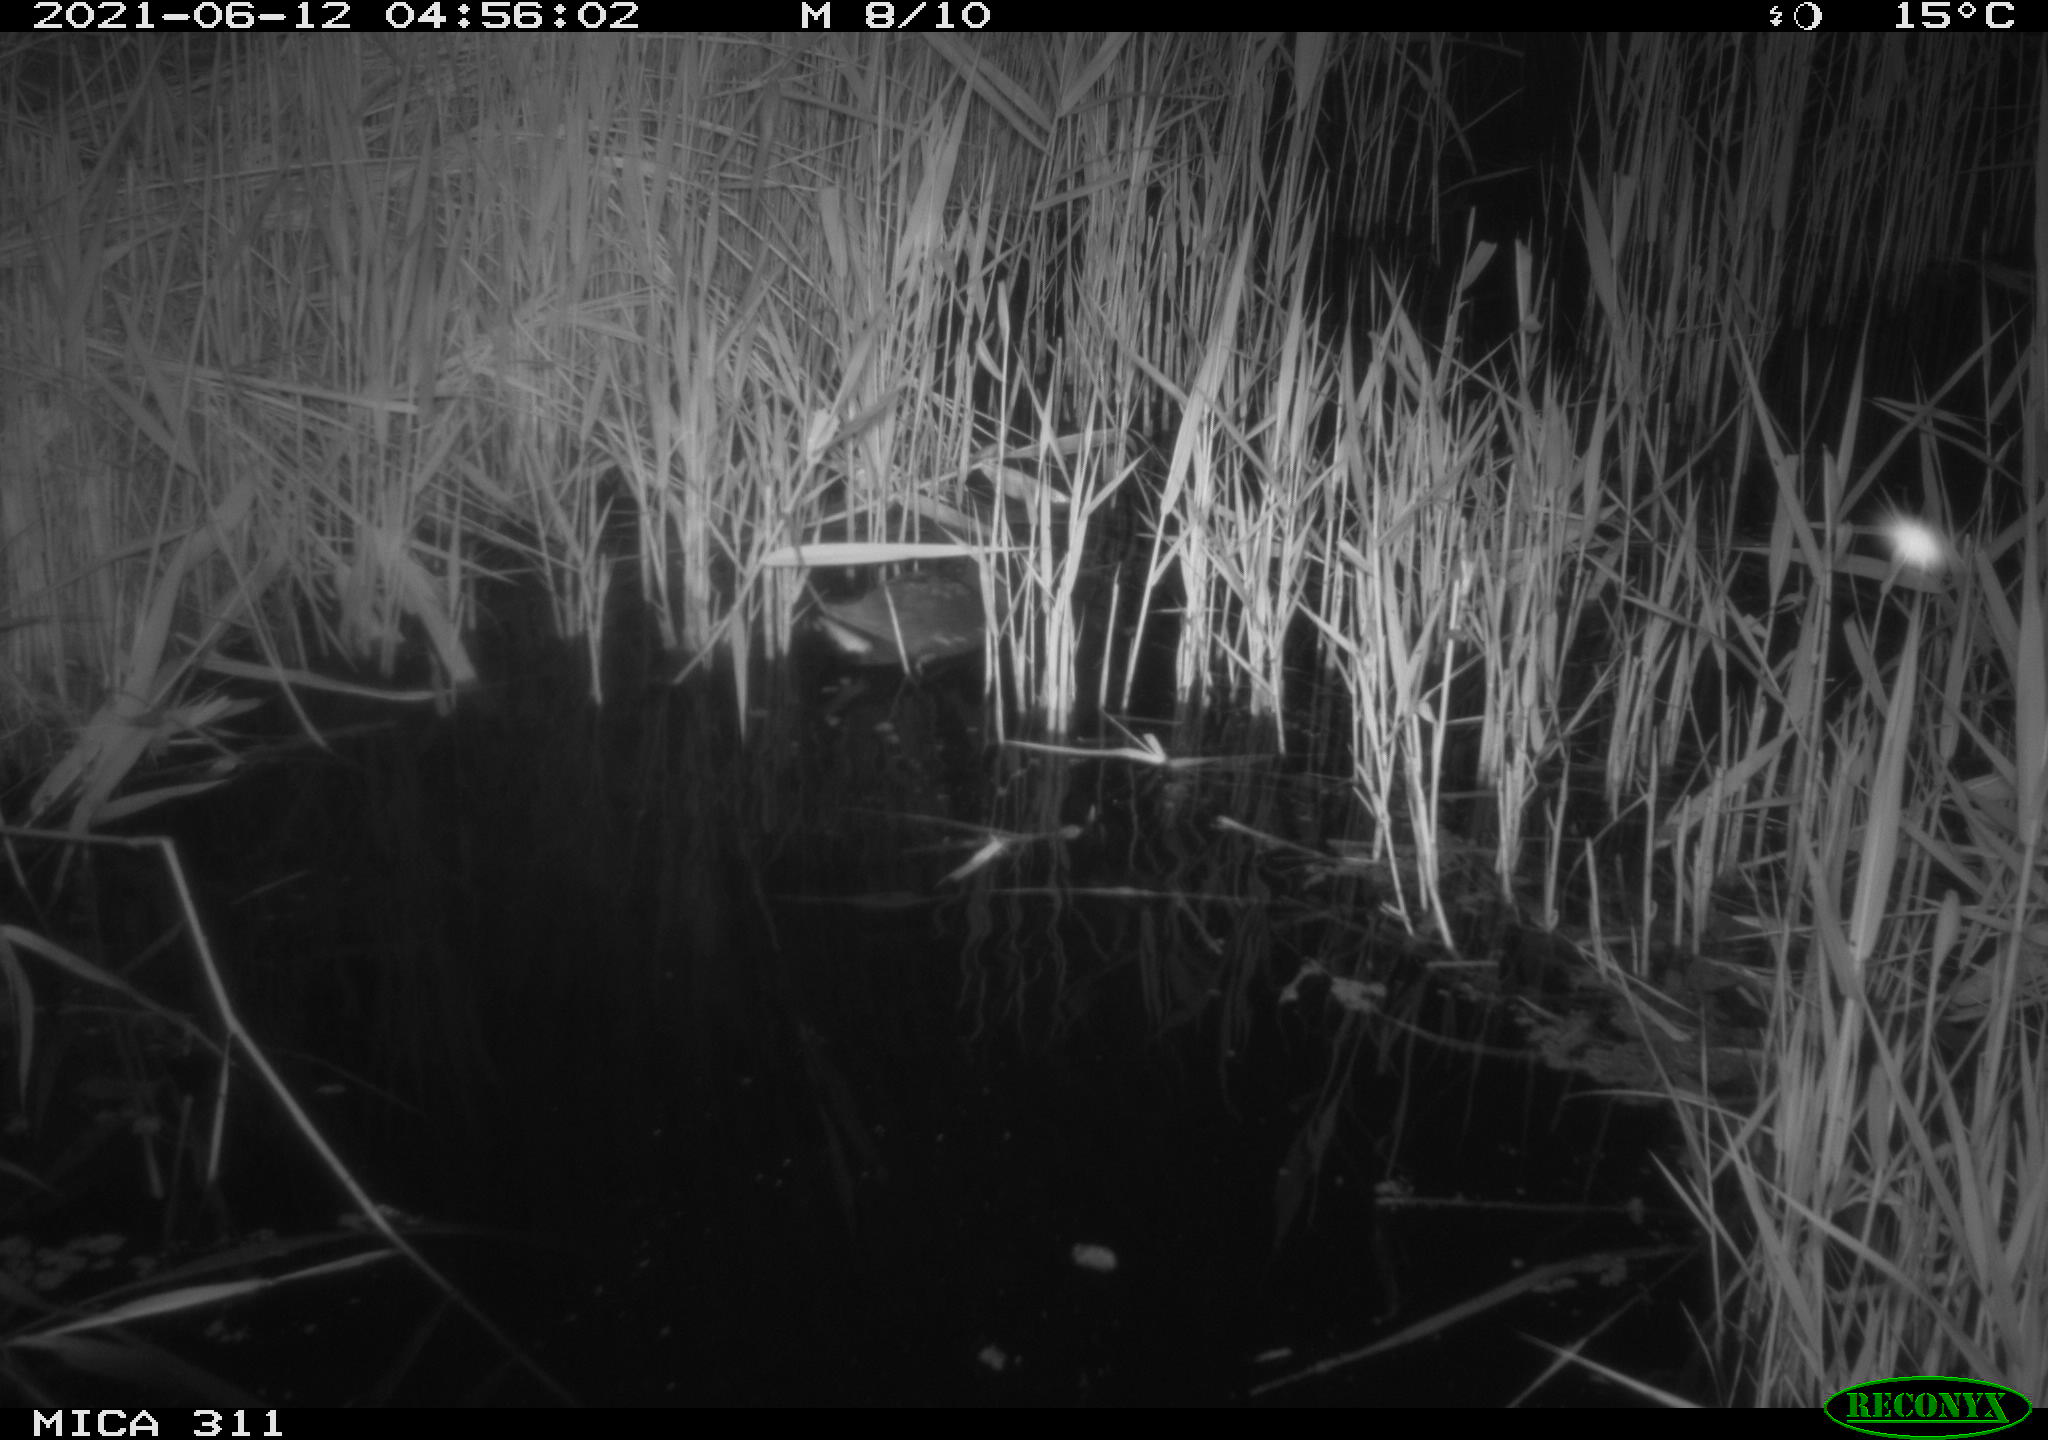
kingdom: Animalia
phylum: Chordata
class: Aves
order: Gruiformes
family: Rallidae
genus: Gallinula
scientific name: Gallinula chloropus
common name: Common moorhen
